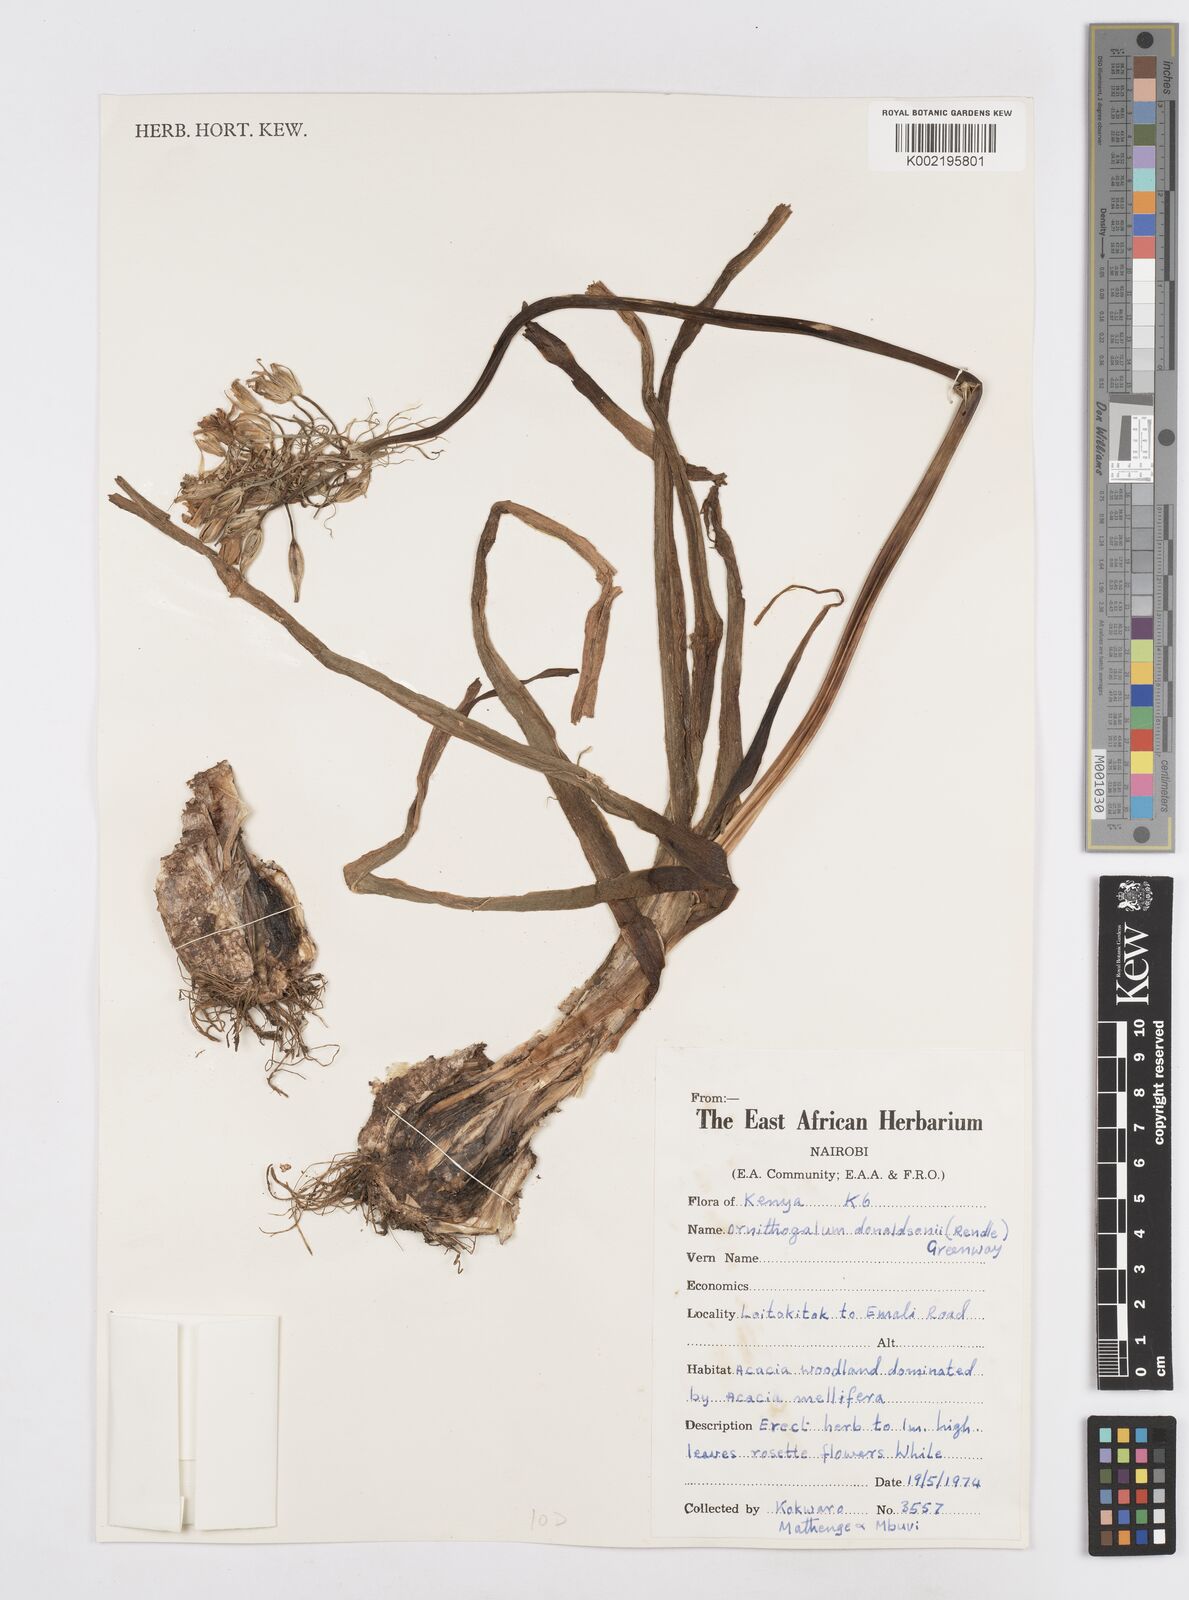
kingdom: Plantae
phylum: Tracheophyta
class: Liliopsida
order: Asparagales
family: Asparagaceae
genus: Albuca
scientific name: Albuca donaldsonii
